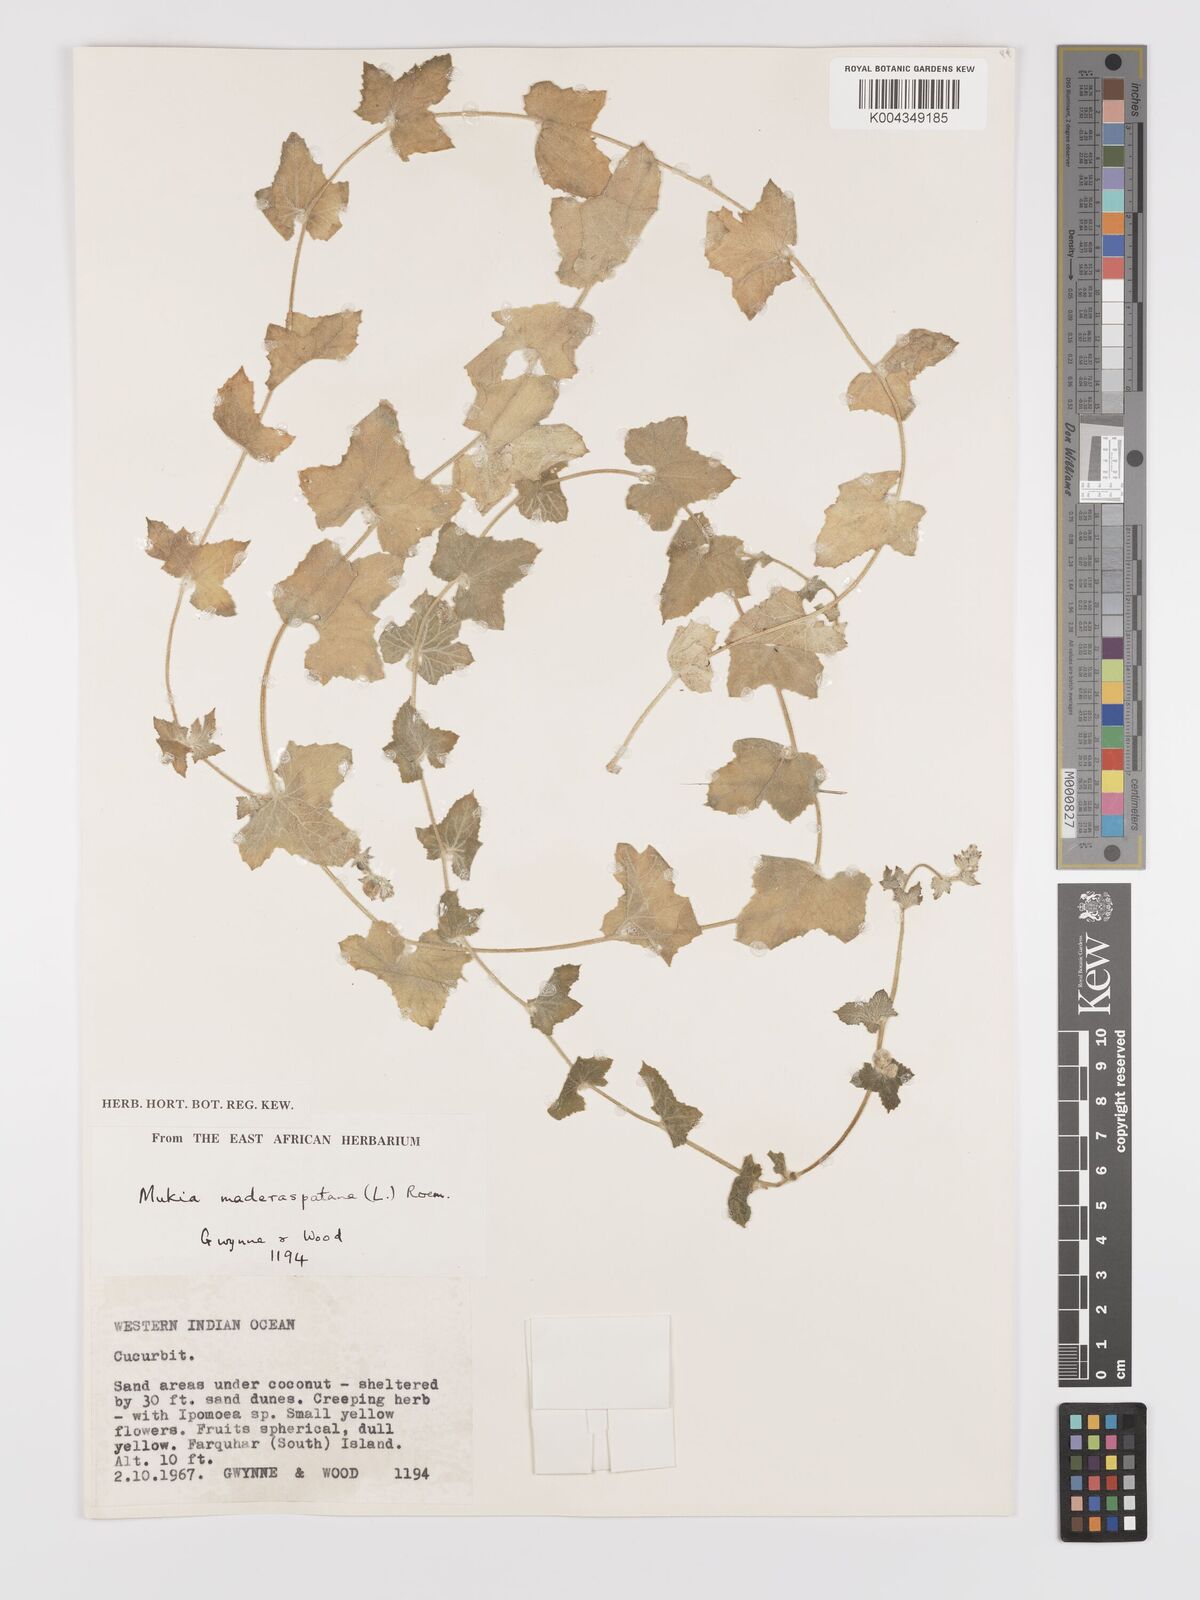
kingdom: Plantae
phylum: Tracheophyta
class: Magnoliopsida
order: Cucurbitales
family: Cucurbitaceae
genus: Cucumis
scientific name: Cucumis maderaspatanus
